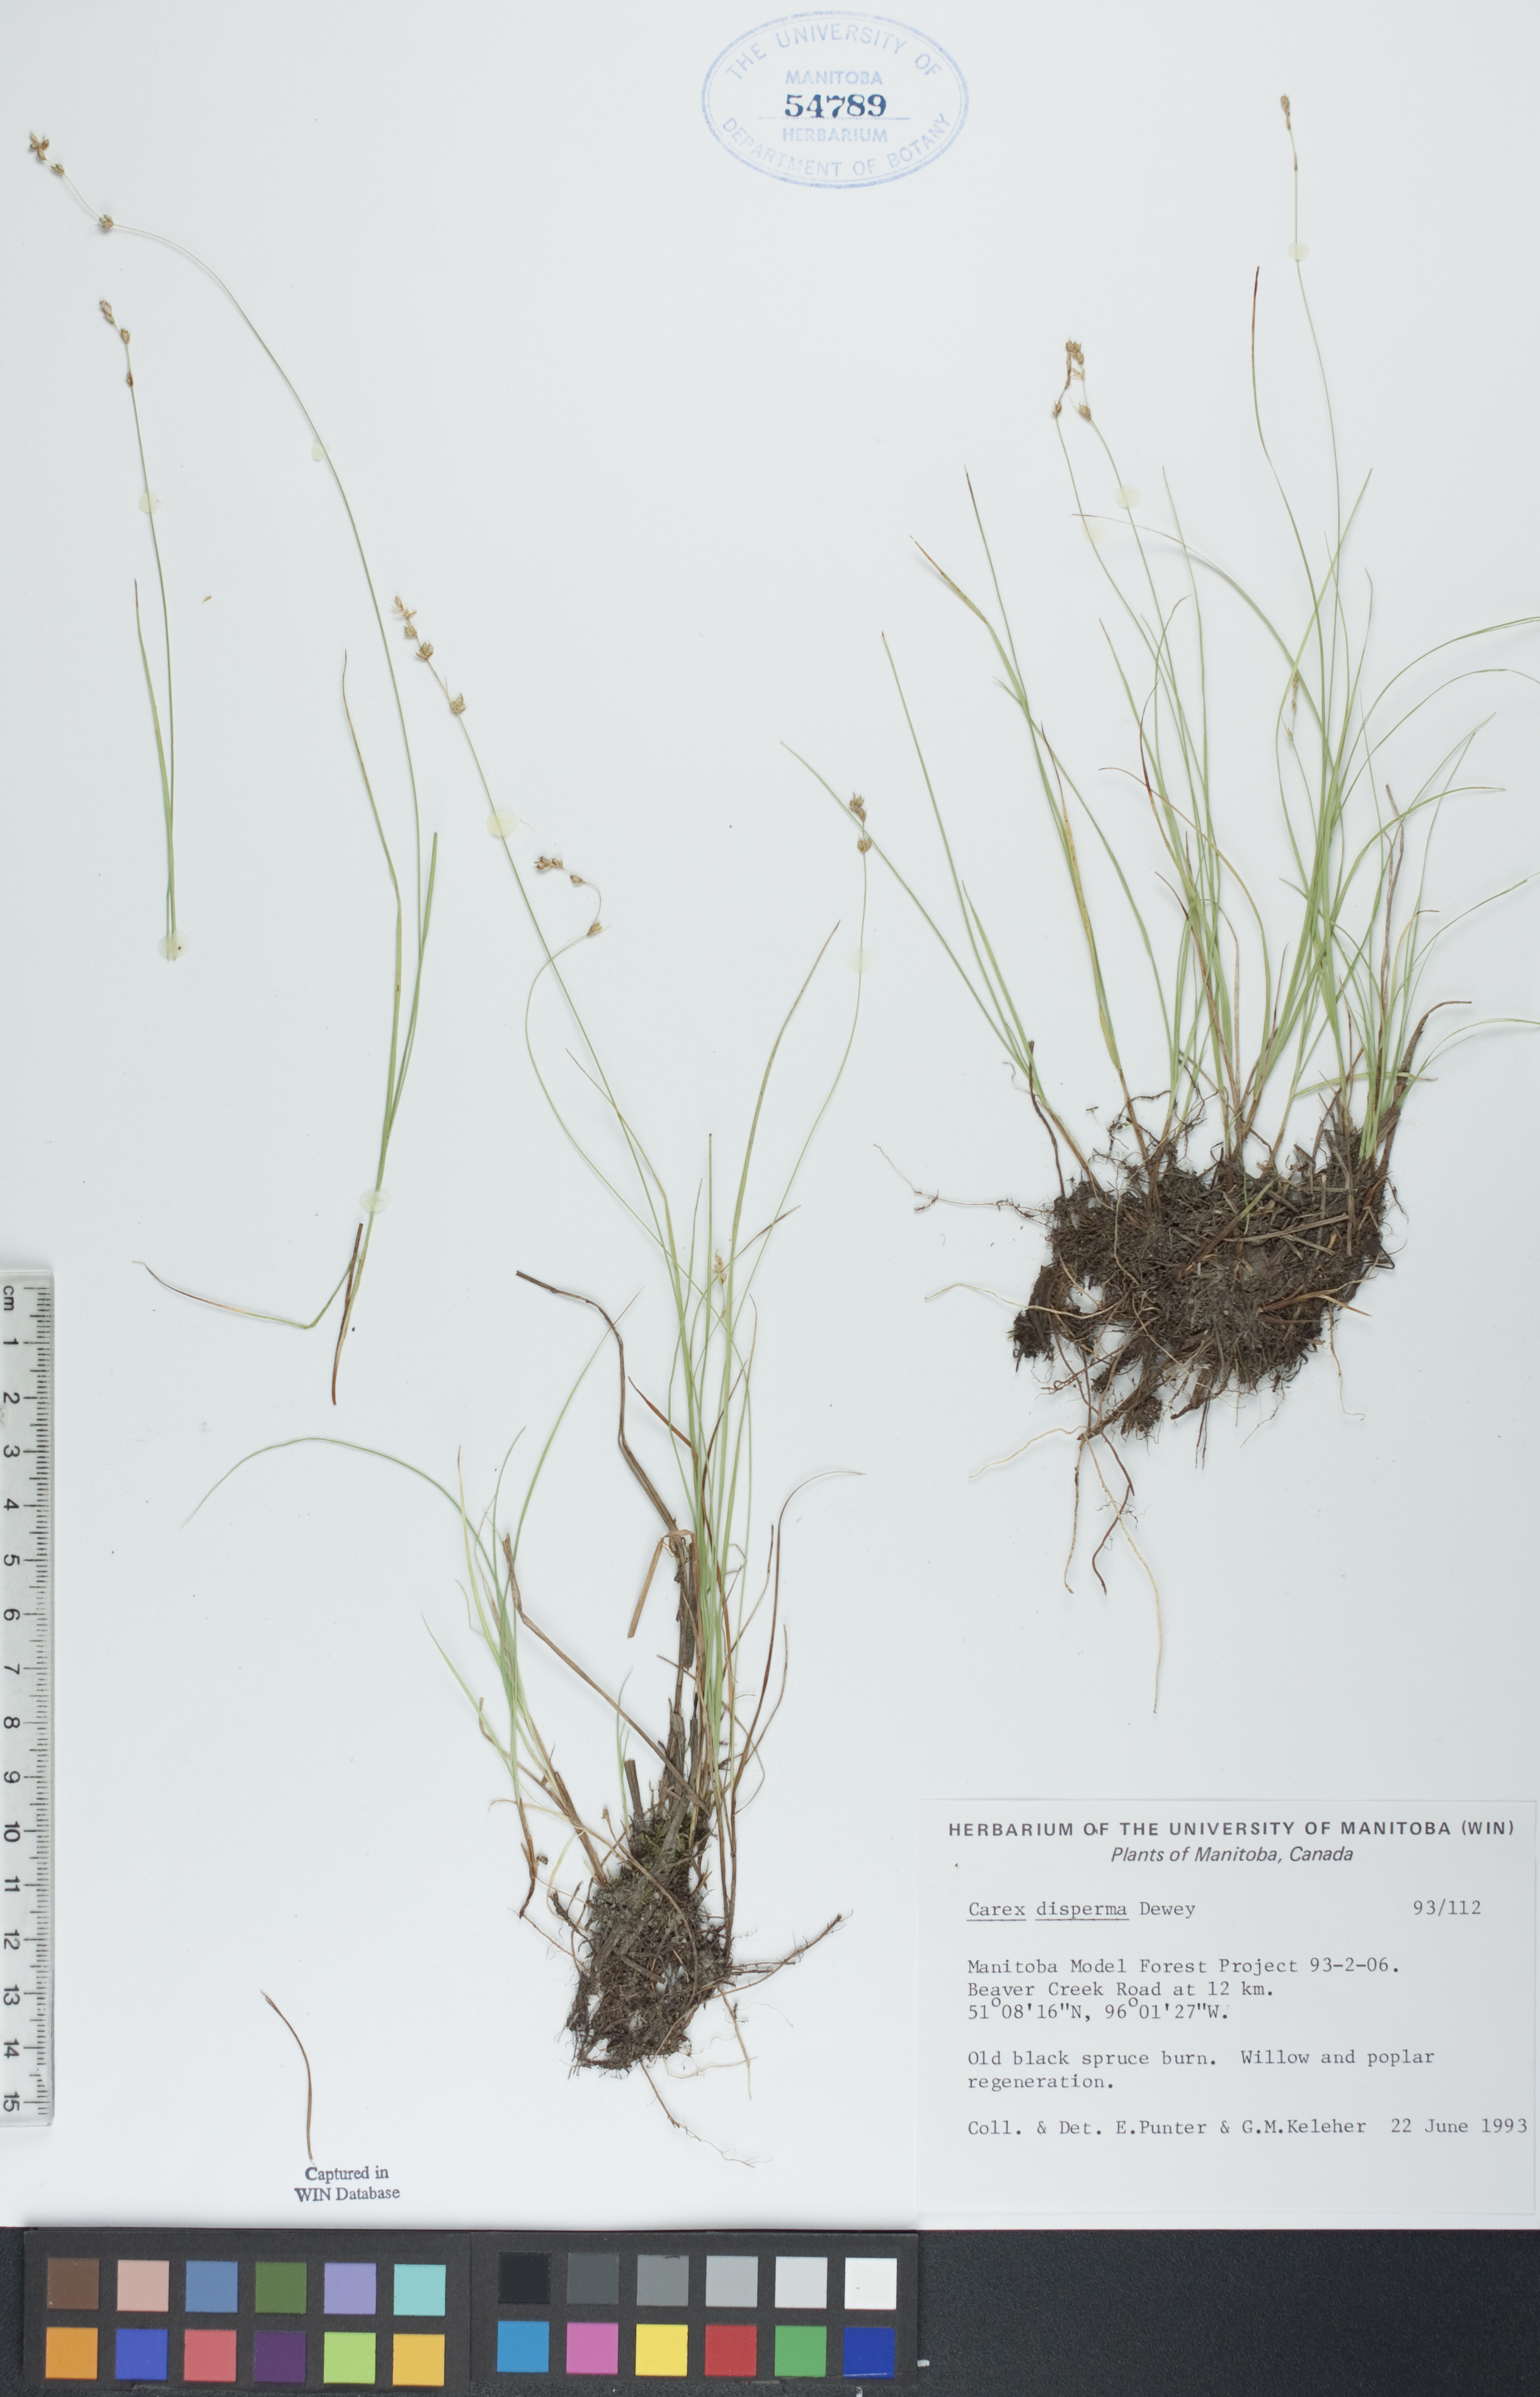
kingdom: Plantae
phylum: Tracheophyta
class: Liliopsida
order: Poales
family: Cyperaceae
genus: Carex
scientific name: Carex disperma
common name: Short-leaved sedge
